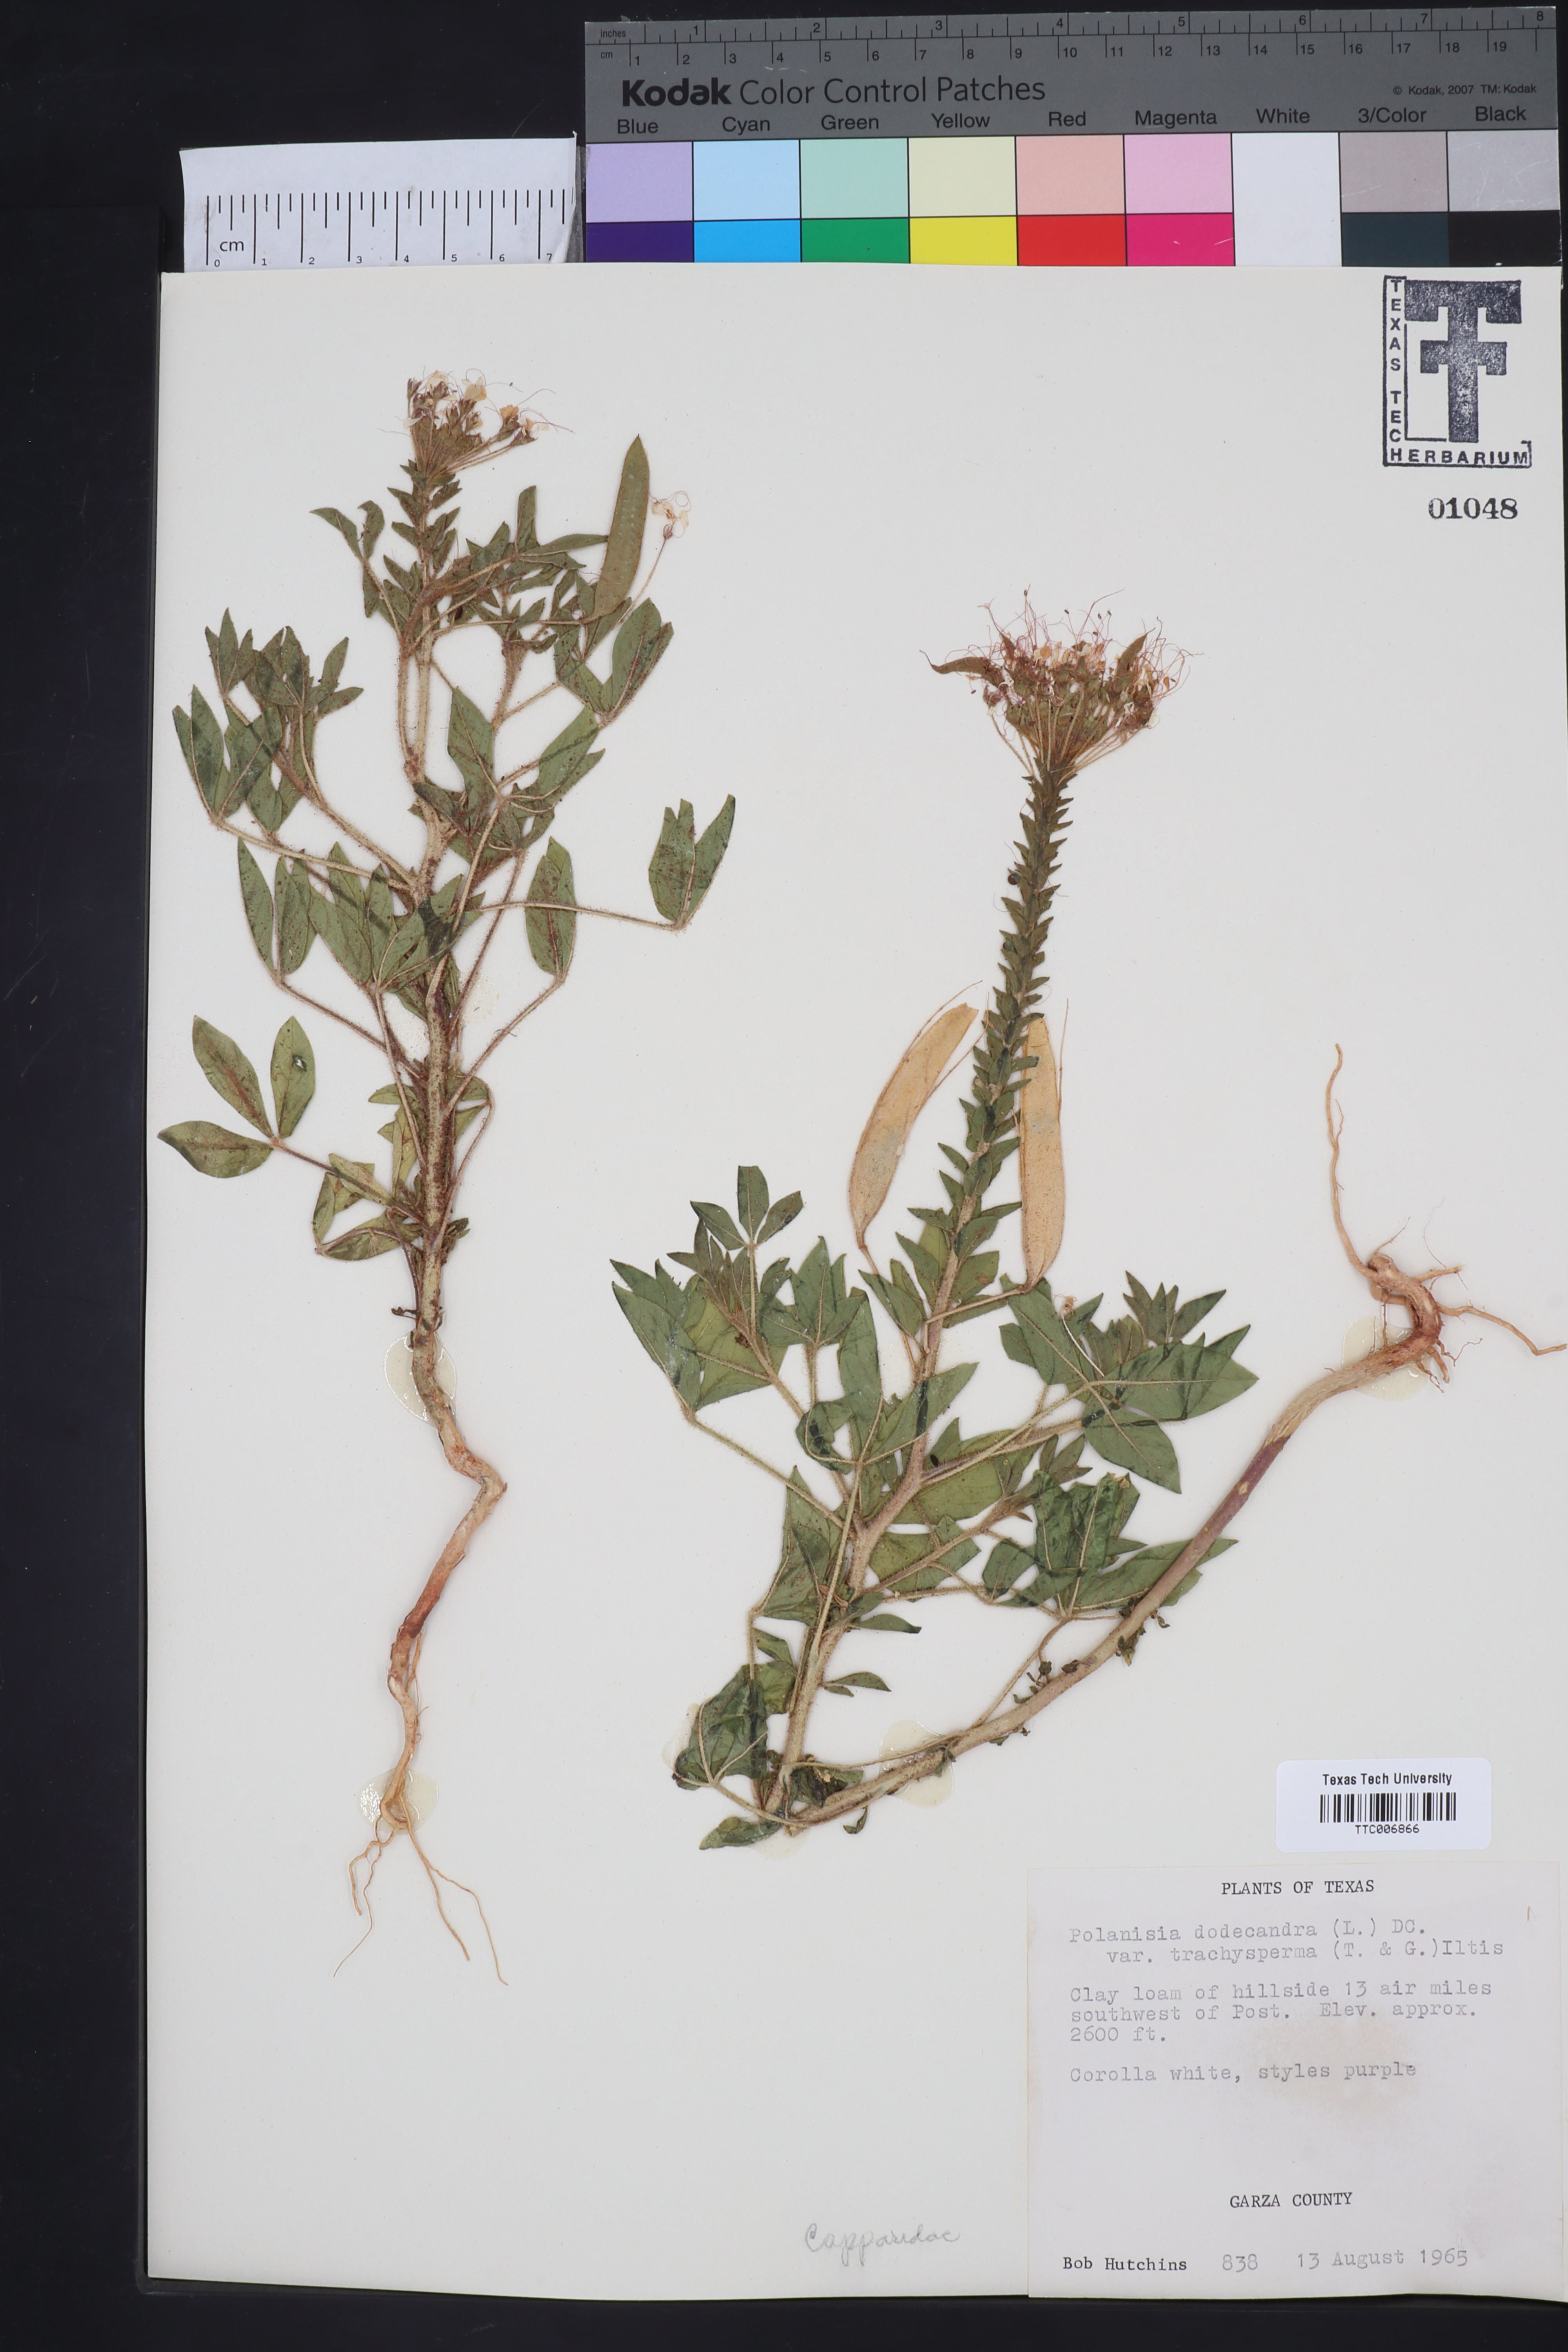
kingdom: Plantae
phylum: Tracheophyta
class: Magnoliopsida
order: Brassicales
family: Cleomaceae
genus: Polanisia
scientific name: Polanisia trachysperma
